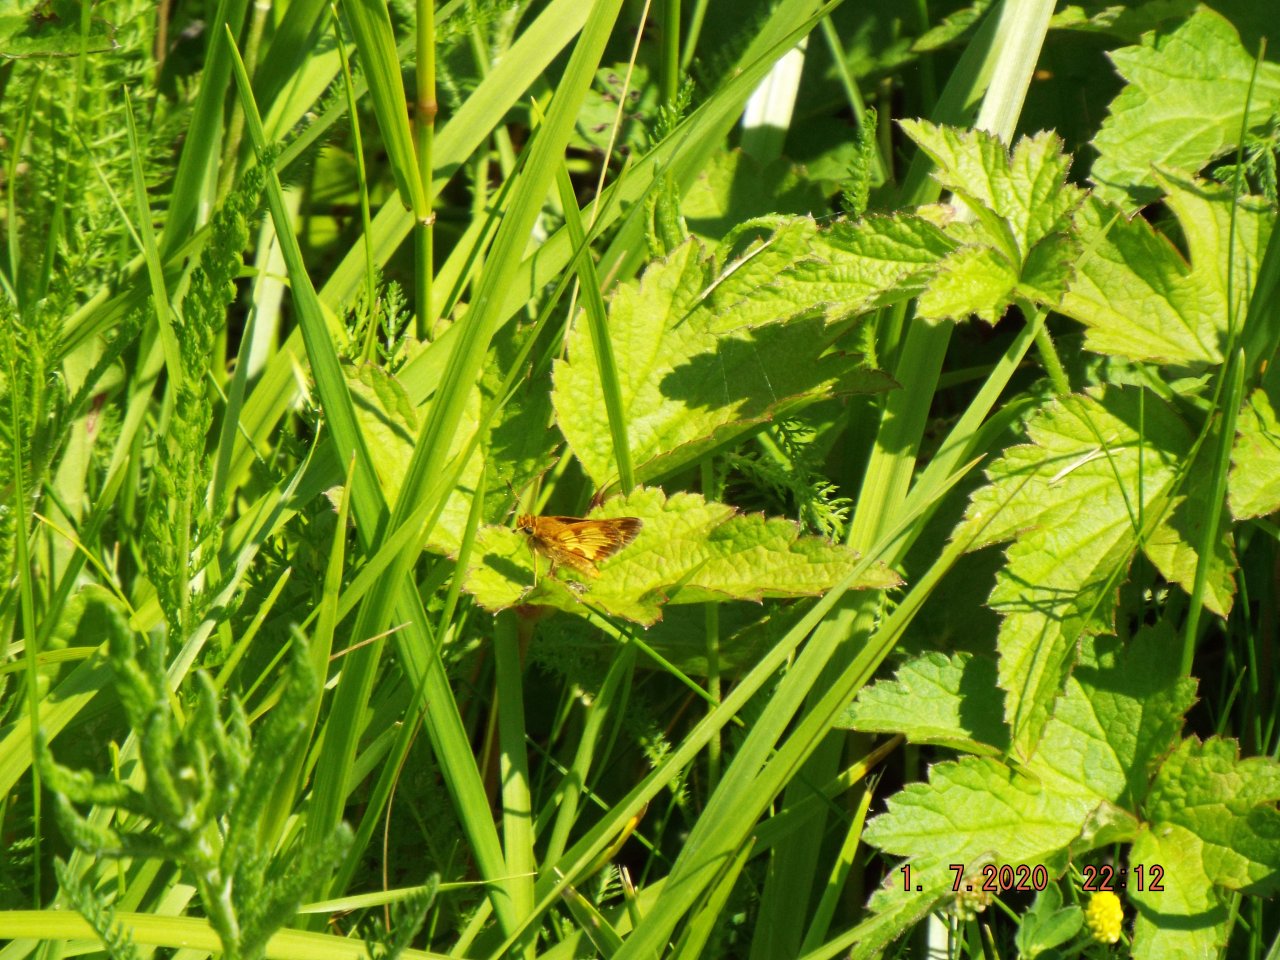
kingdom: Animalia
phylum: Arthropoda
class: Insecta
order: Lepidoptera
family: Hesperiidae
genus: Polites
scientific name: Polites coras
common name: Peck's Skipper
